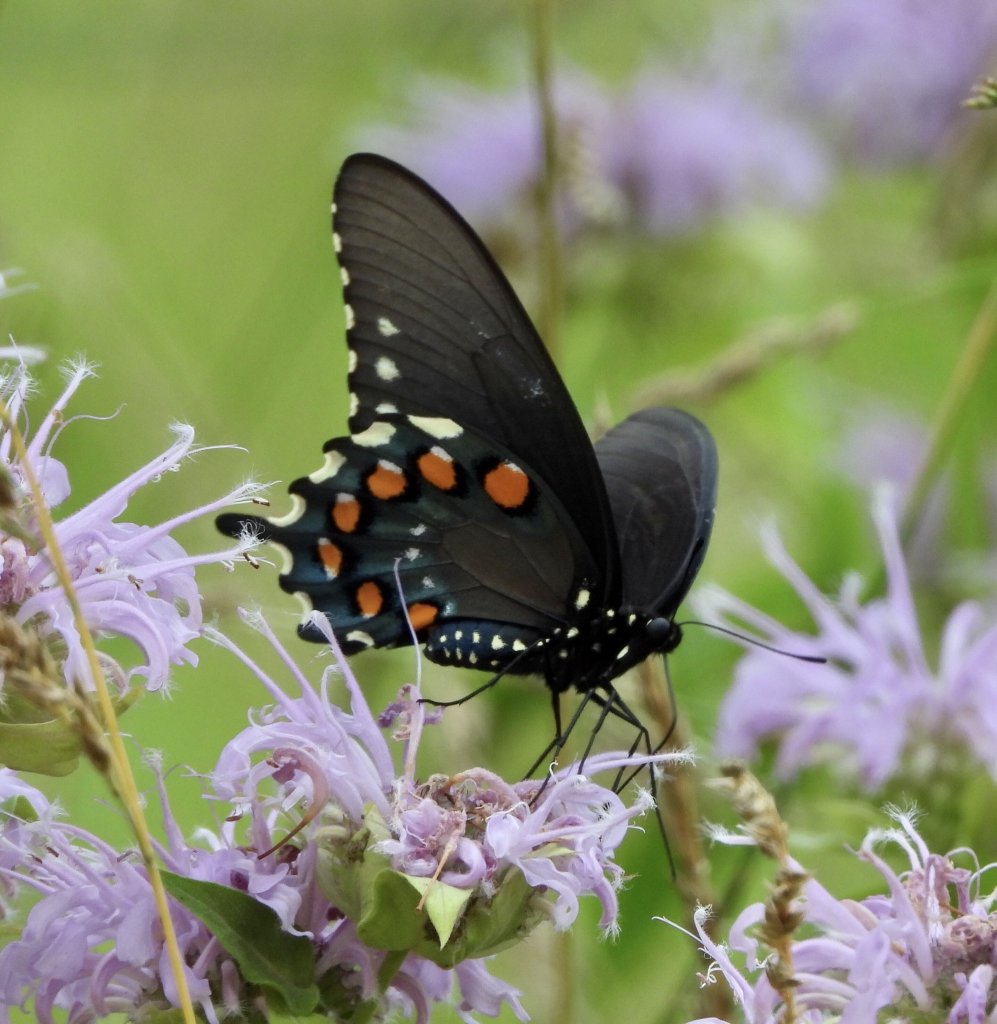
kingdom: Animalia
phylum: Arthropoda
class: Insecta
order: Lepidoptera
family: Papilionidae
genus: Battus
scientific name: Battus philenor
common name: Pipevine Swallowtail
